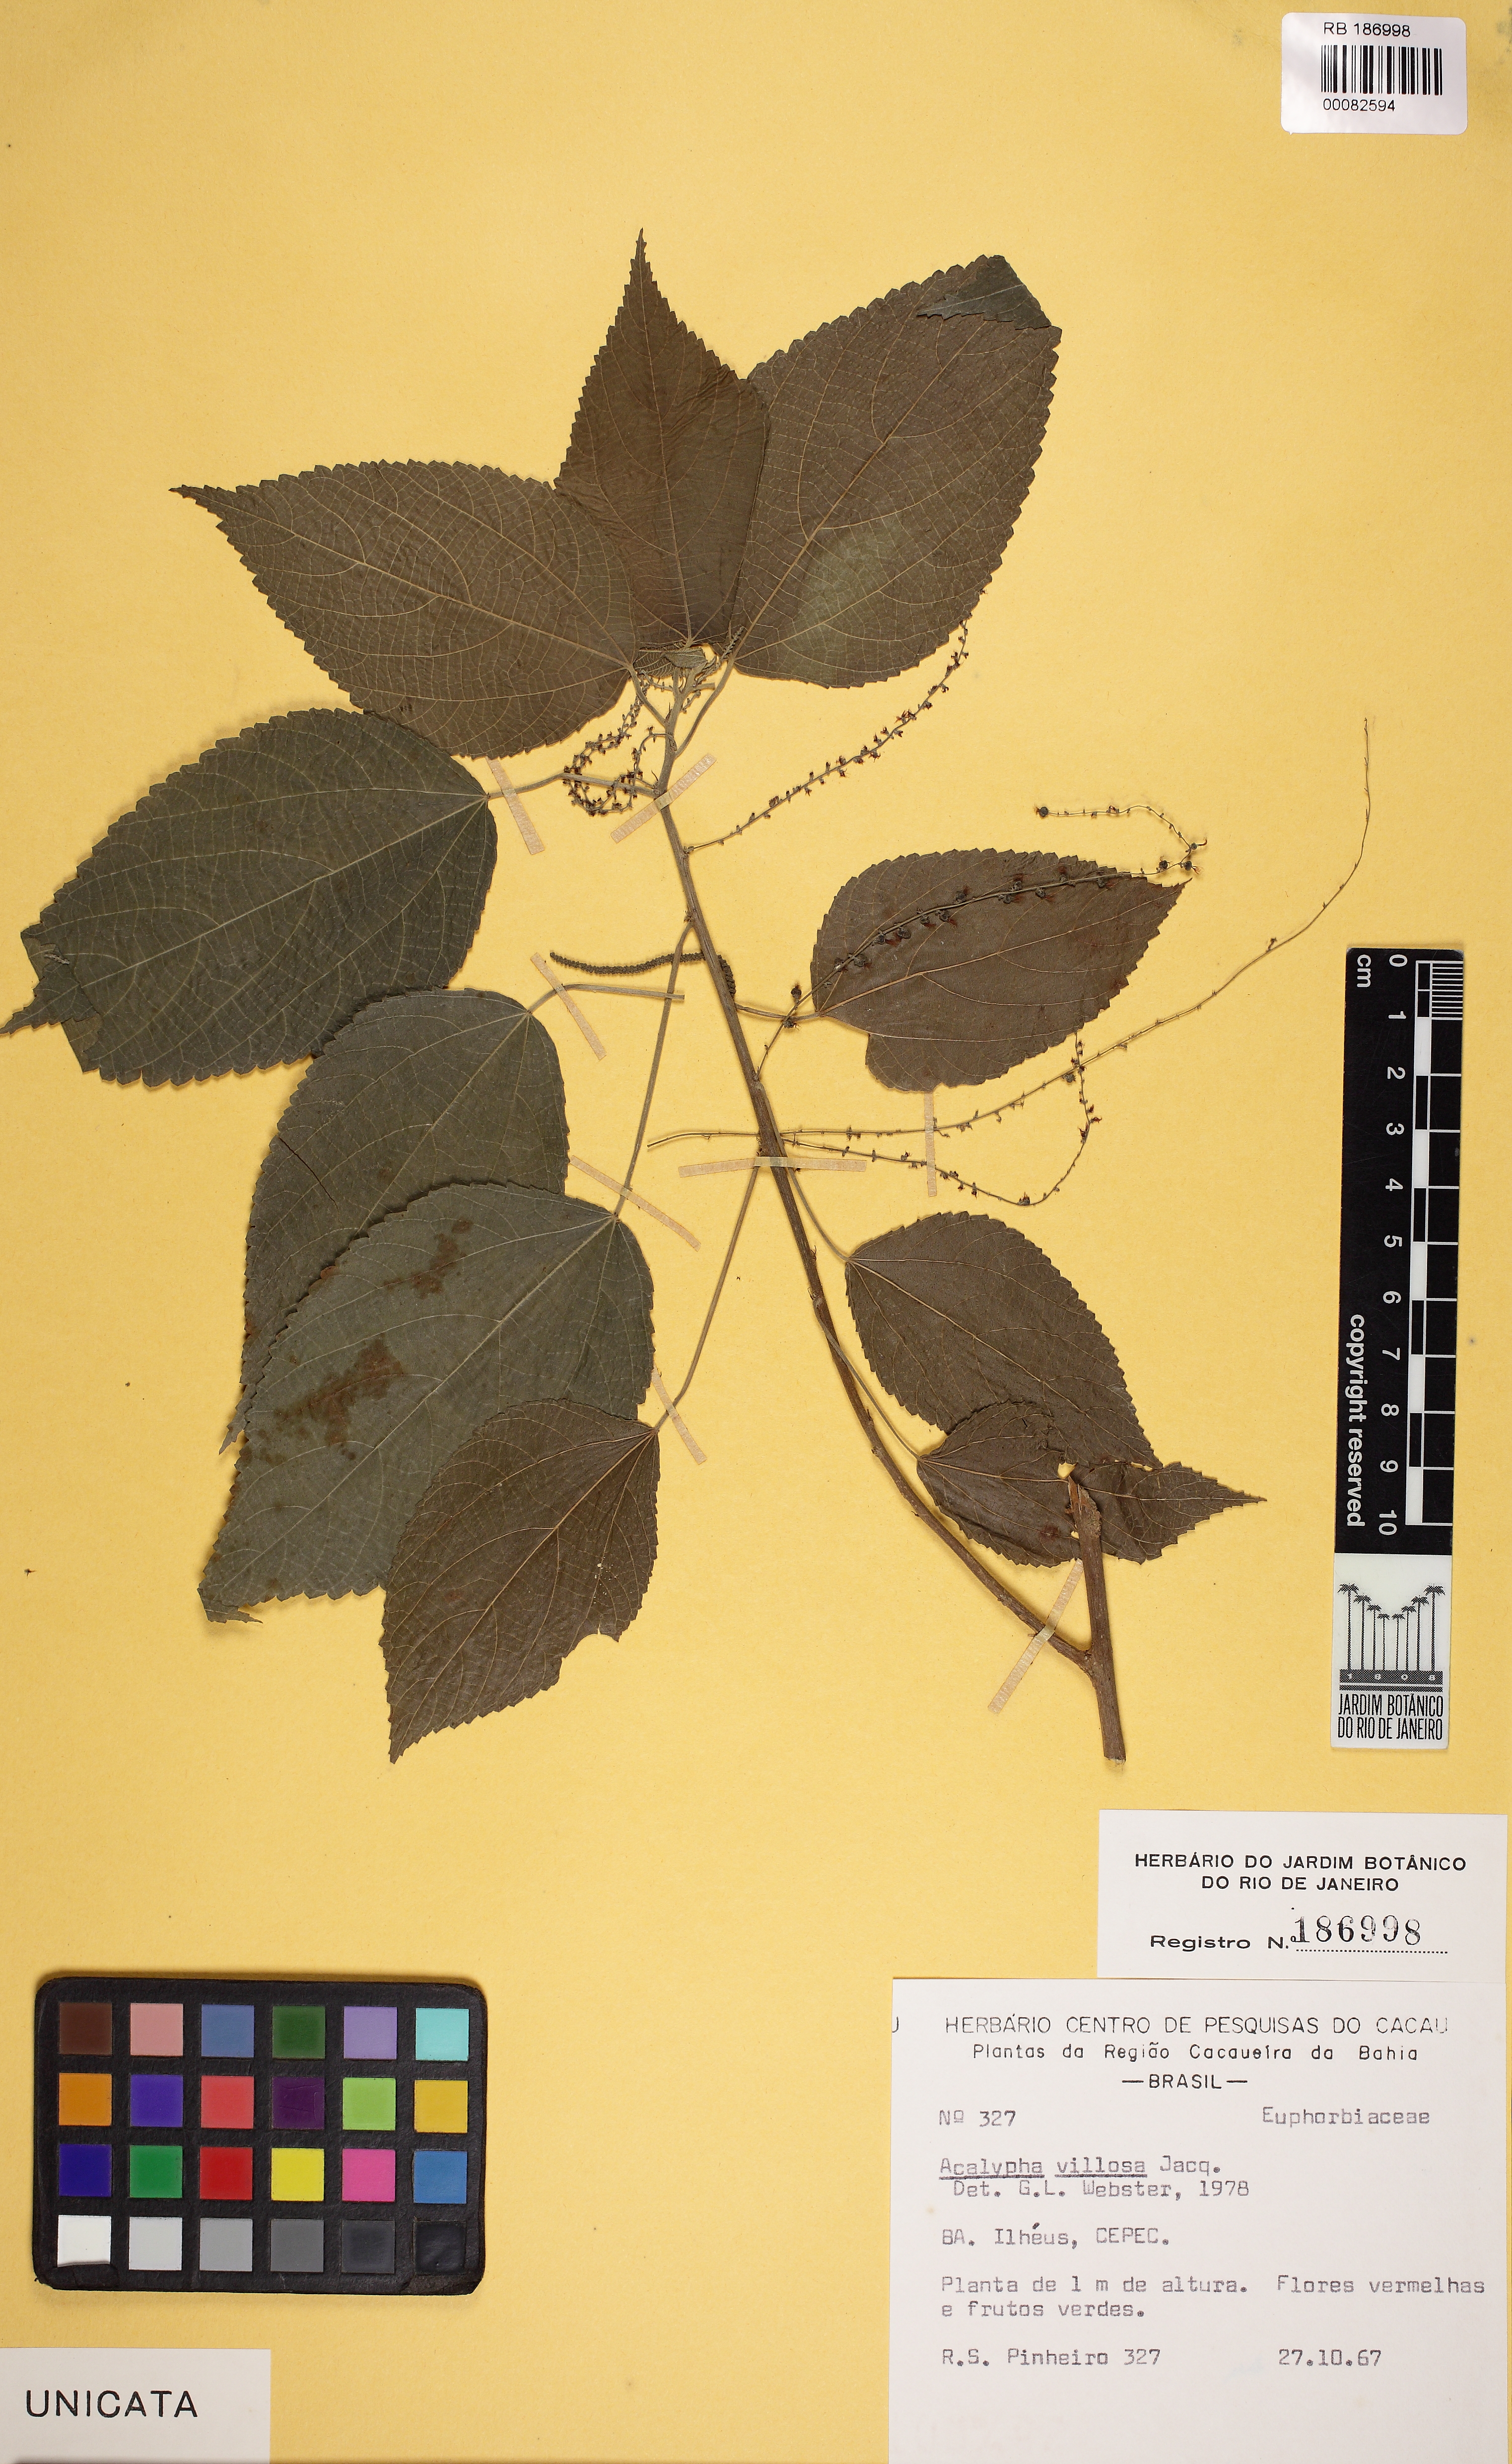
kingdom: Plantae
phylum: Tracheophyta
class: Magnoliopsida
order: Malpighiales
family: Euphorbiaceae
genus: Acalypha
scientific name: Acalypha poiretii
